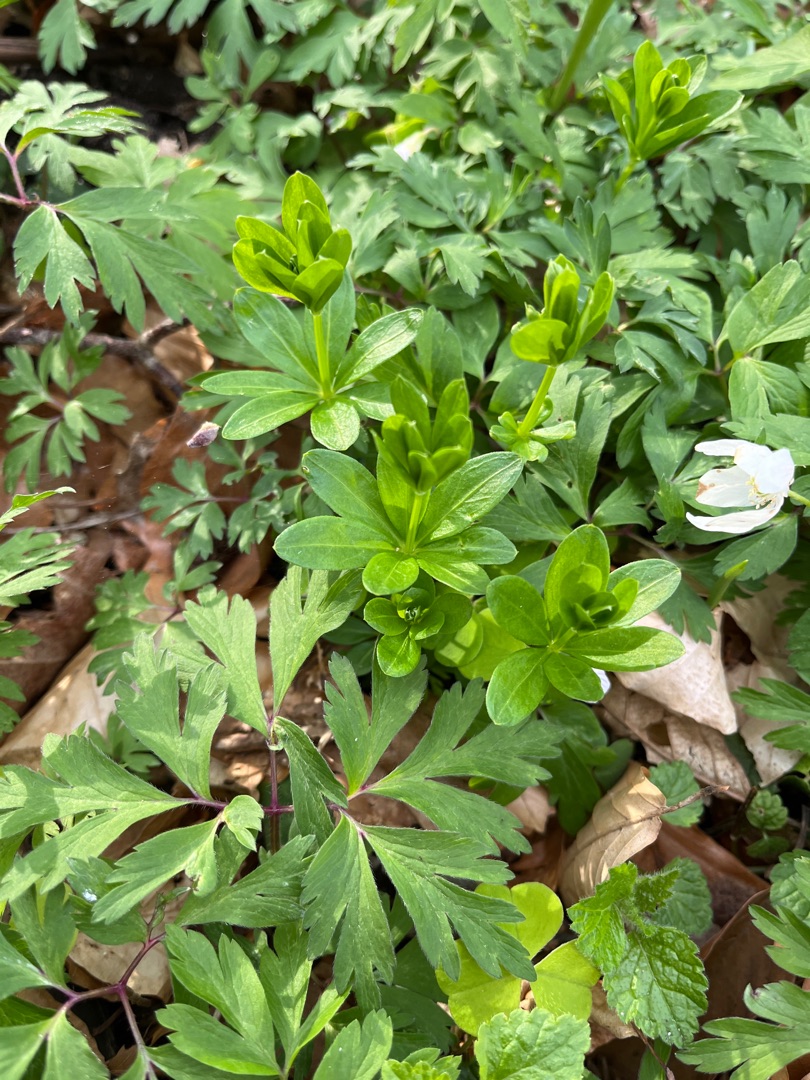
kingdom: Plantae
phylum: Tracheophyta
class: Magnoliopsida
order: Gentianales
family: Rubiaceae
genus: Galium
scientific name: Galium odoratum
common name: Skovmærke
